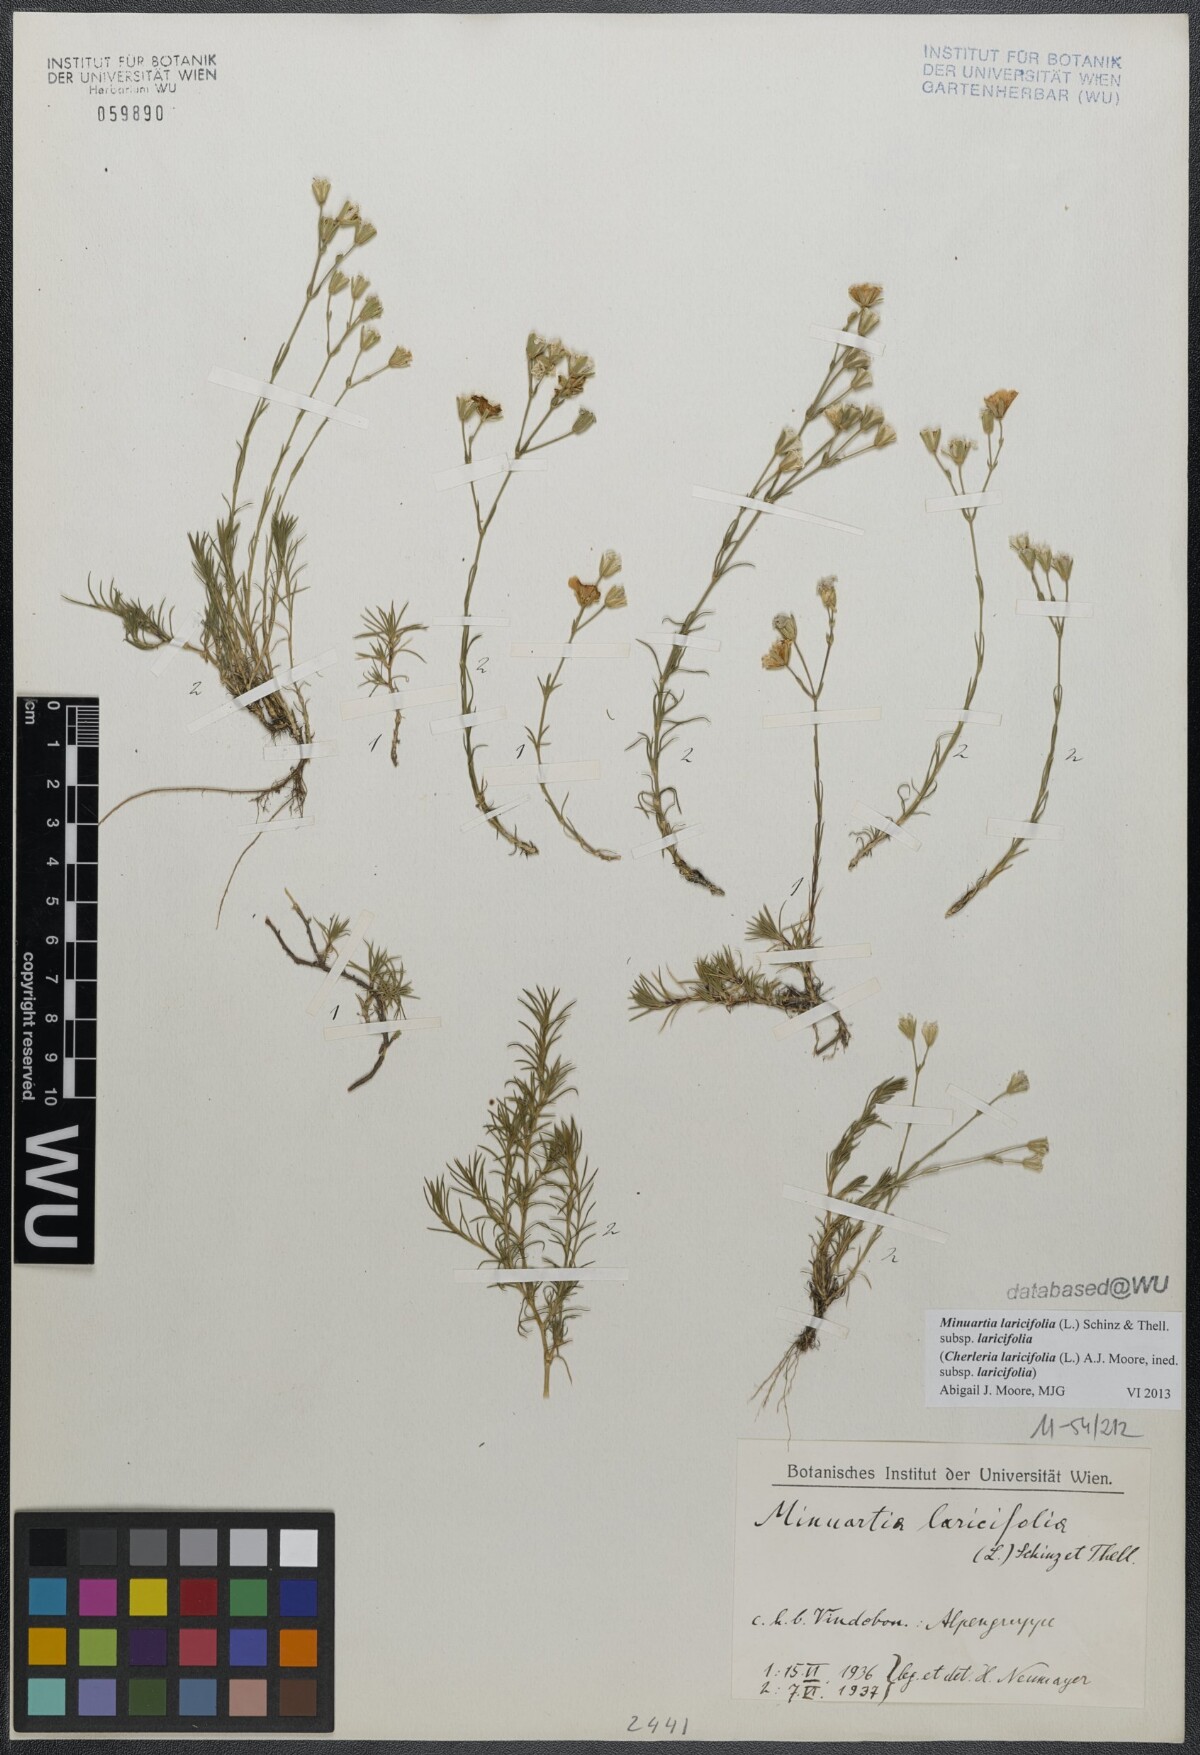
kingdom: Plantae
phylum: Tracheophyta
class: Magnoliopsida
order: Caryophyllales
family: Caryophyllaceae
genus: Cherleria
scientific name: Cherleria laricifolia
